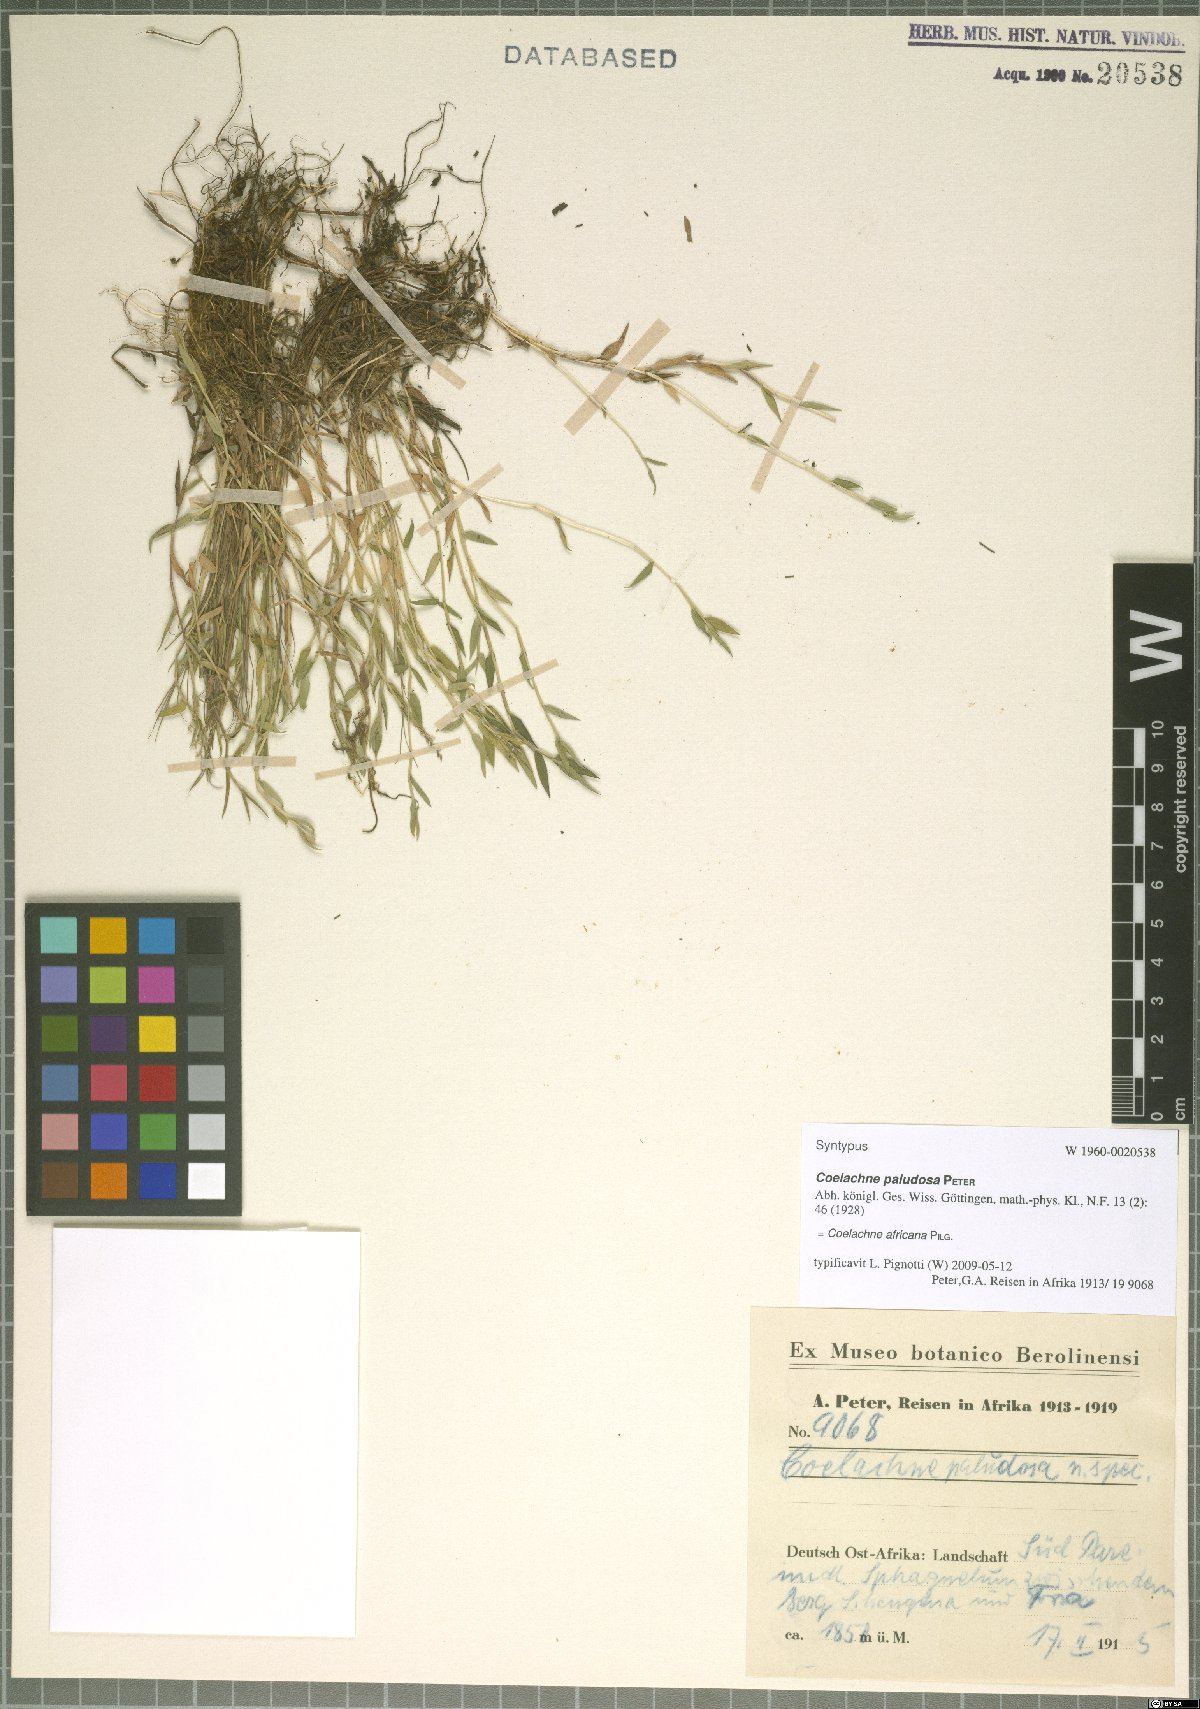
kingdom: Plantae
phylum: Tracheophyta
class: Liliopsida
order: Poales
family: Poaceae
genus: Coelachne
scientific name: Coelachne africana
